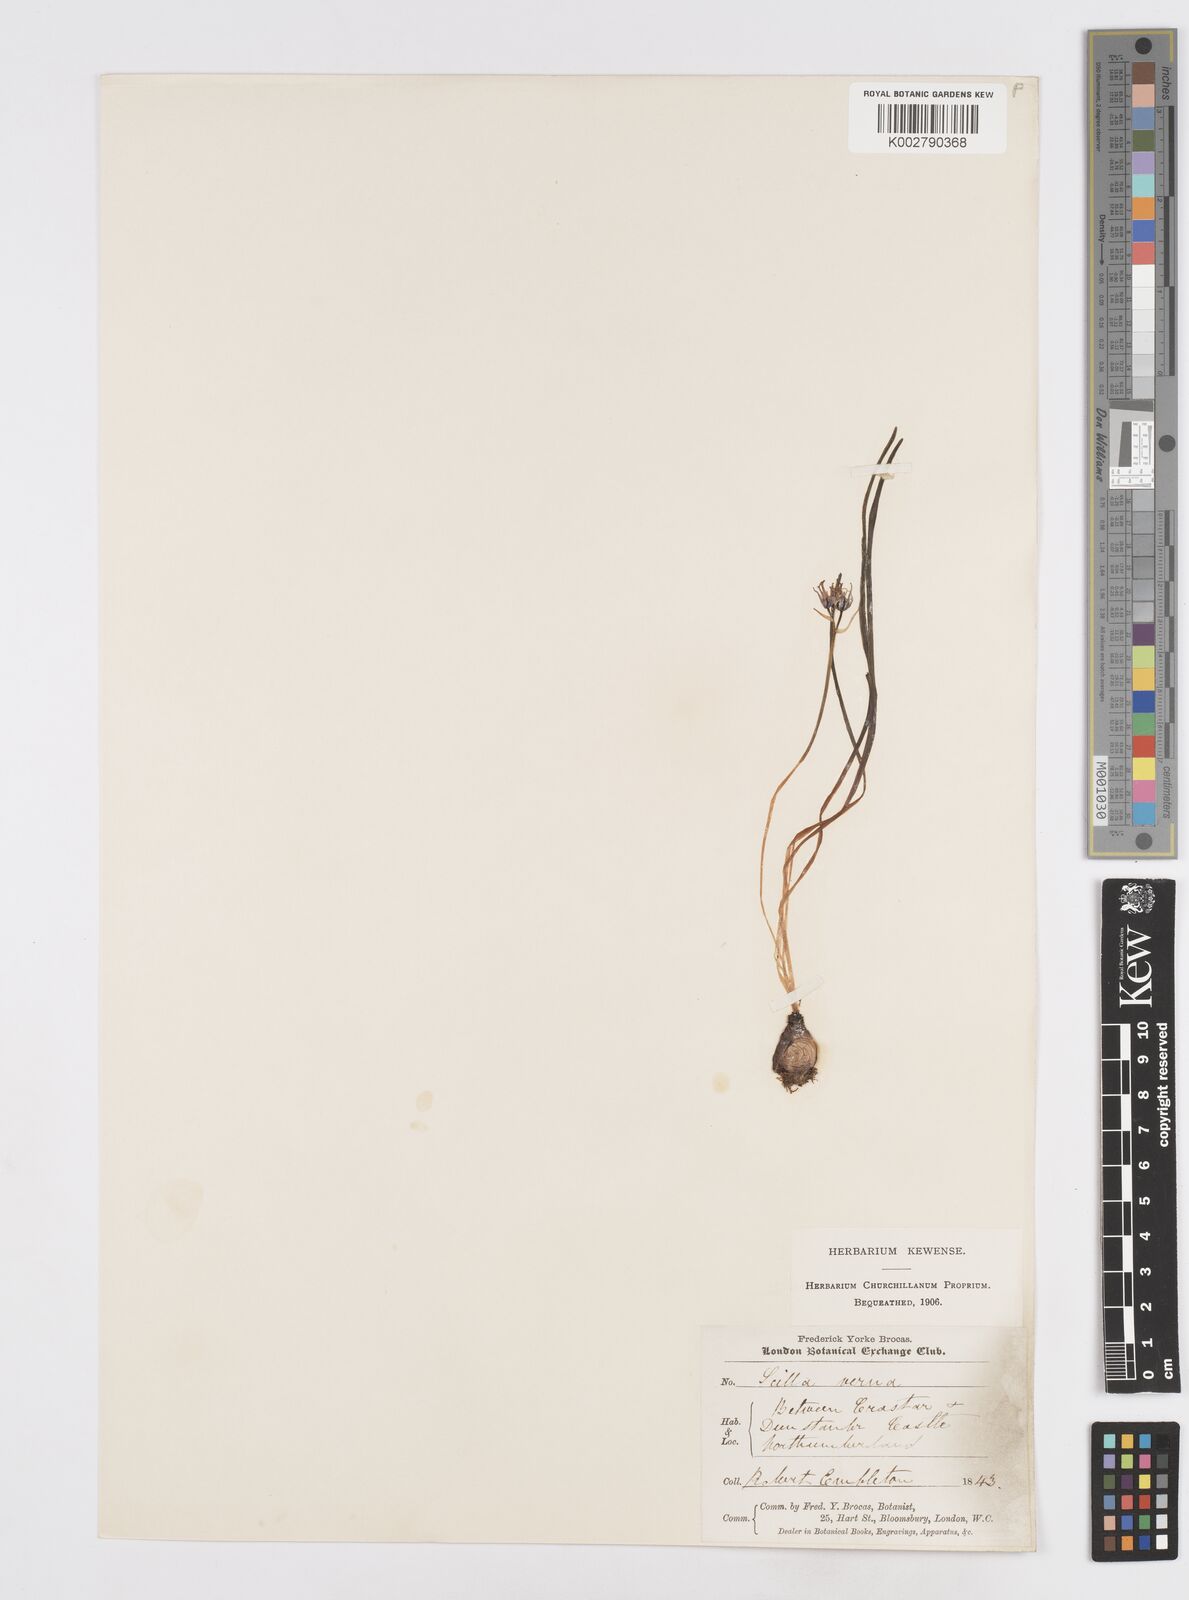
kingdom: Plantae
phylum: Tracheophyta
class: Liliopsida
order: Asparagales
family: Asparagaceae
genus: Scilla
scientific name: Scilla verna
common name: Spring squill
